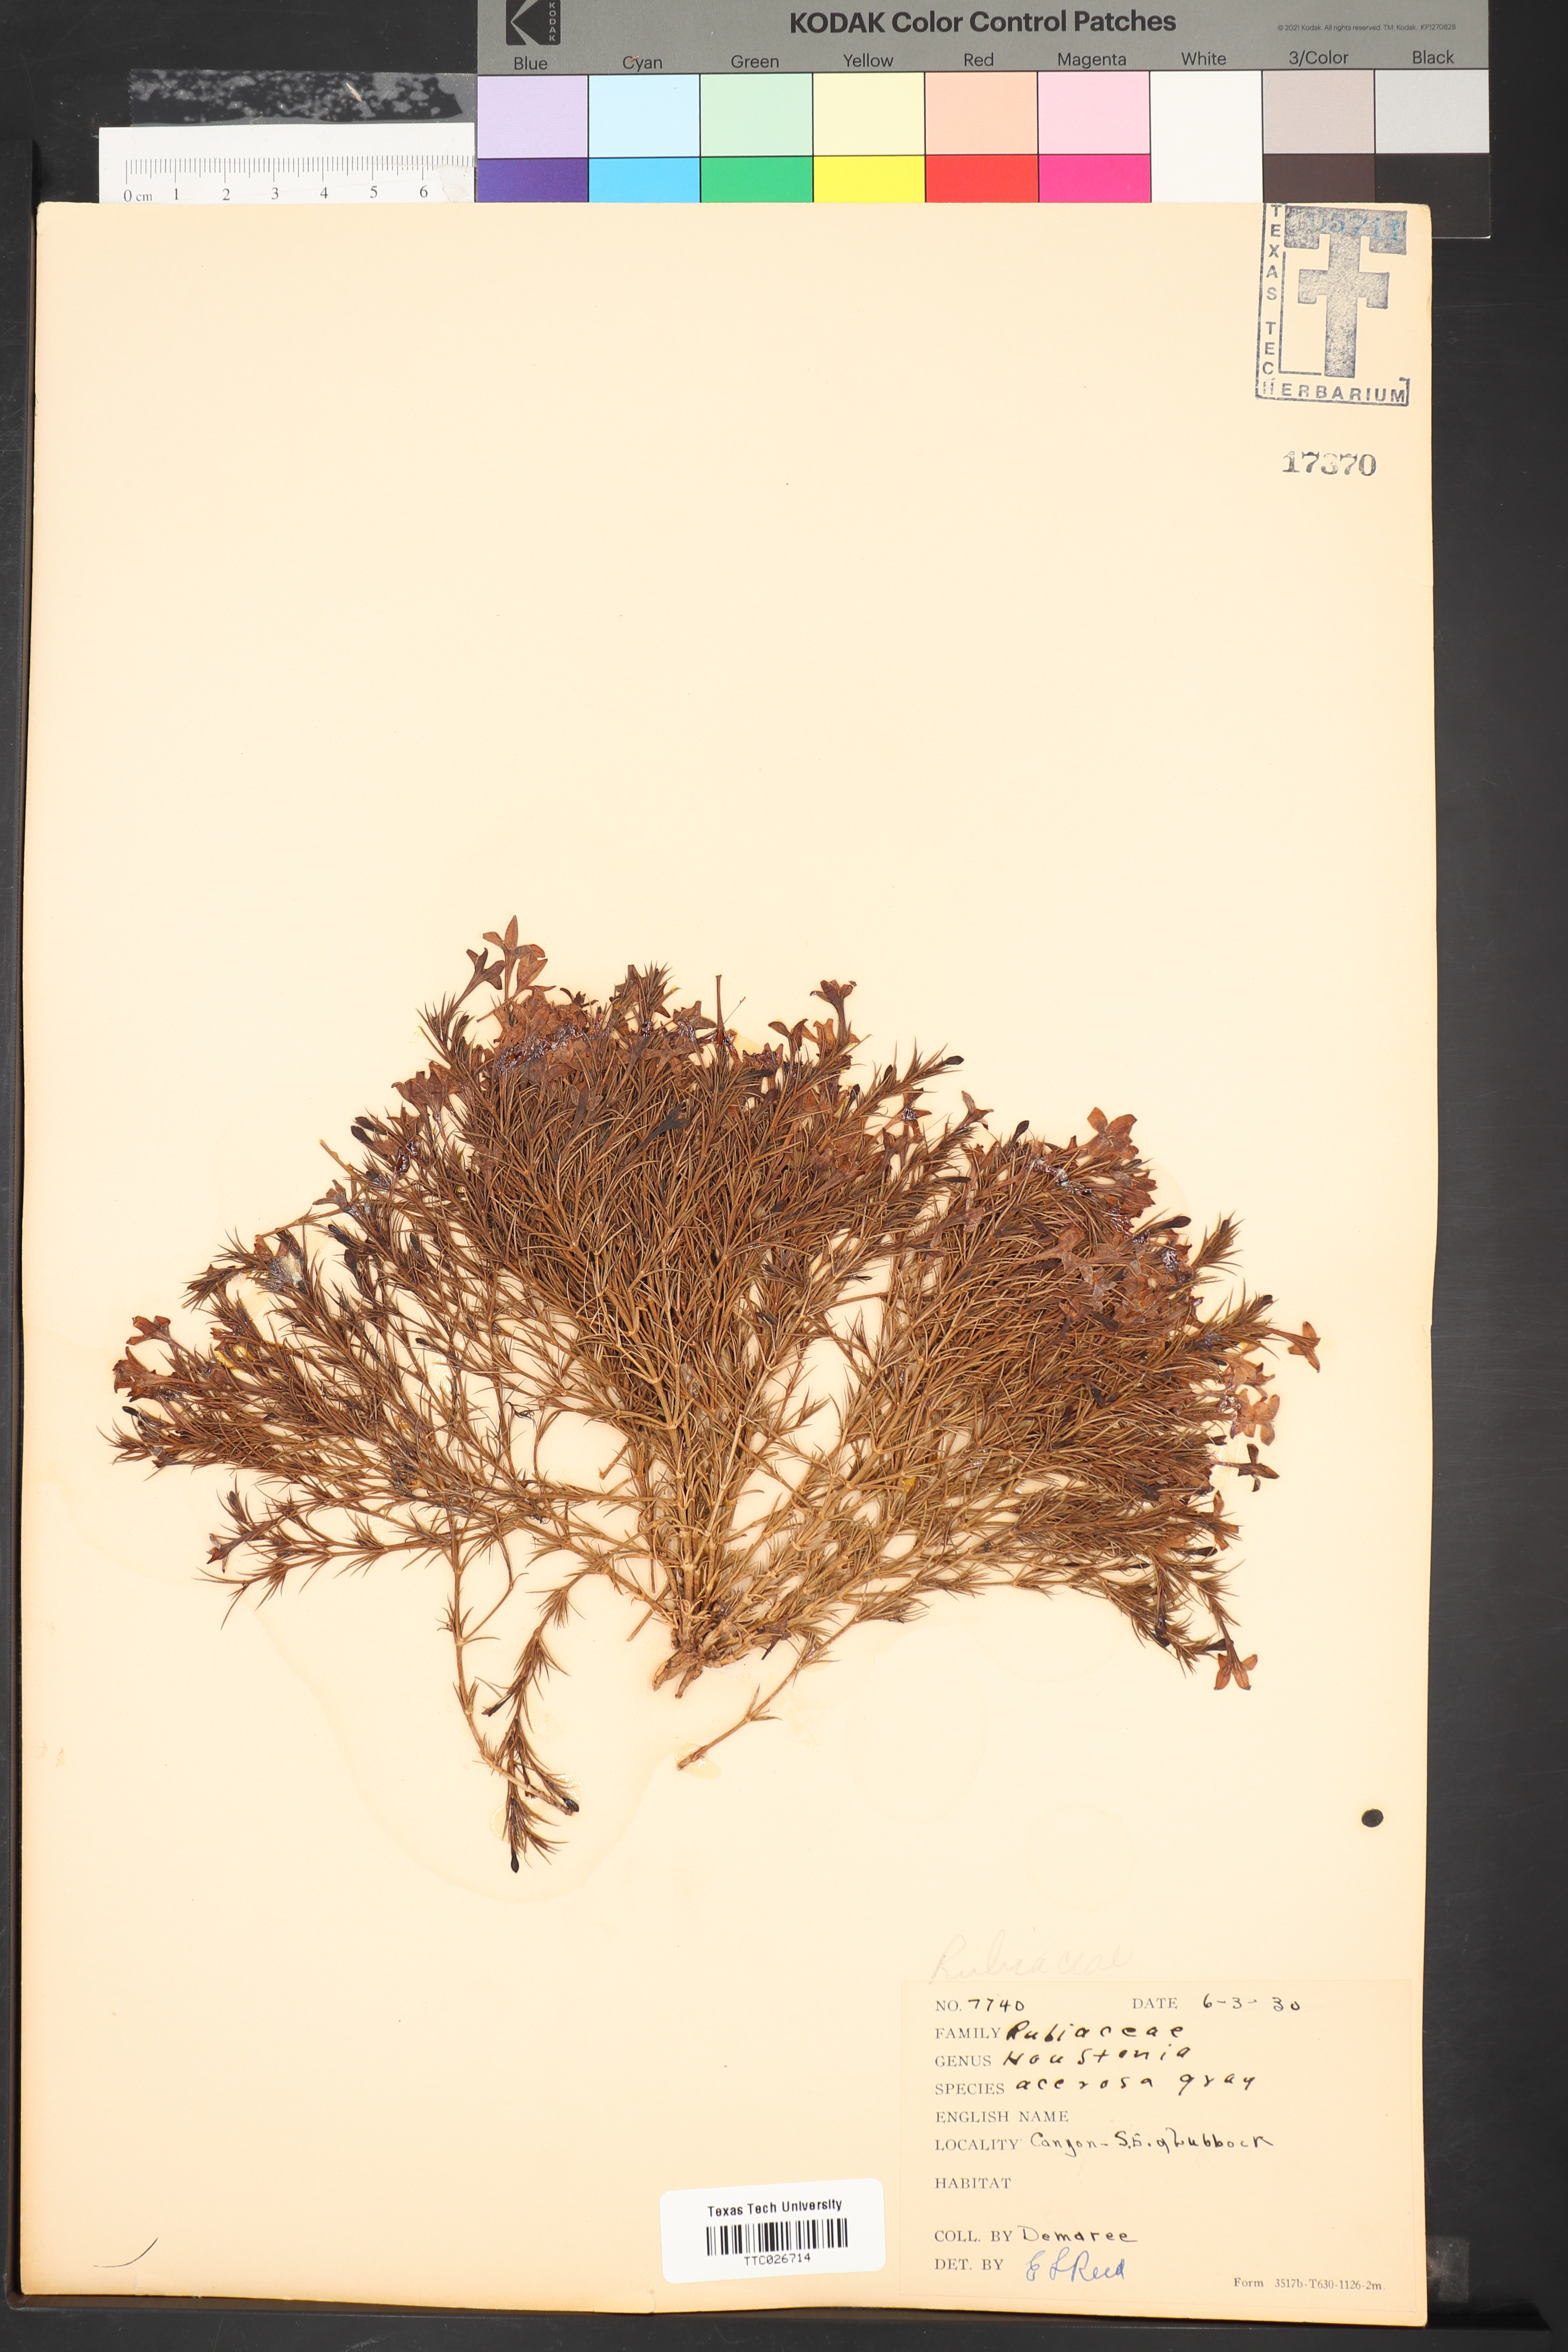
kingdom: Plantae
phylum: Tracheophyta
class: Magnoliopsida
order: Gentianales
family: Rubiaceae
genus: Houstonia
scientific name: Houstonia acerosa
